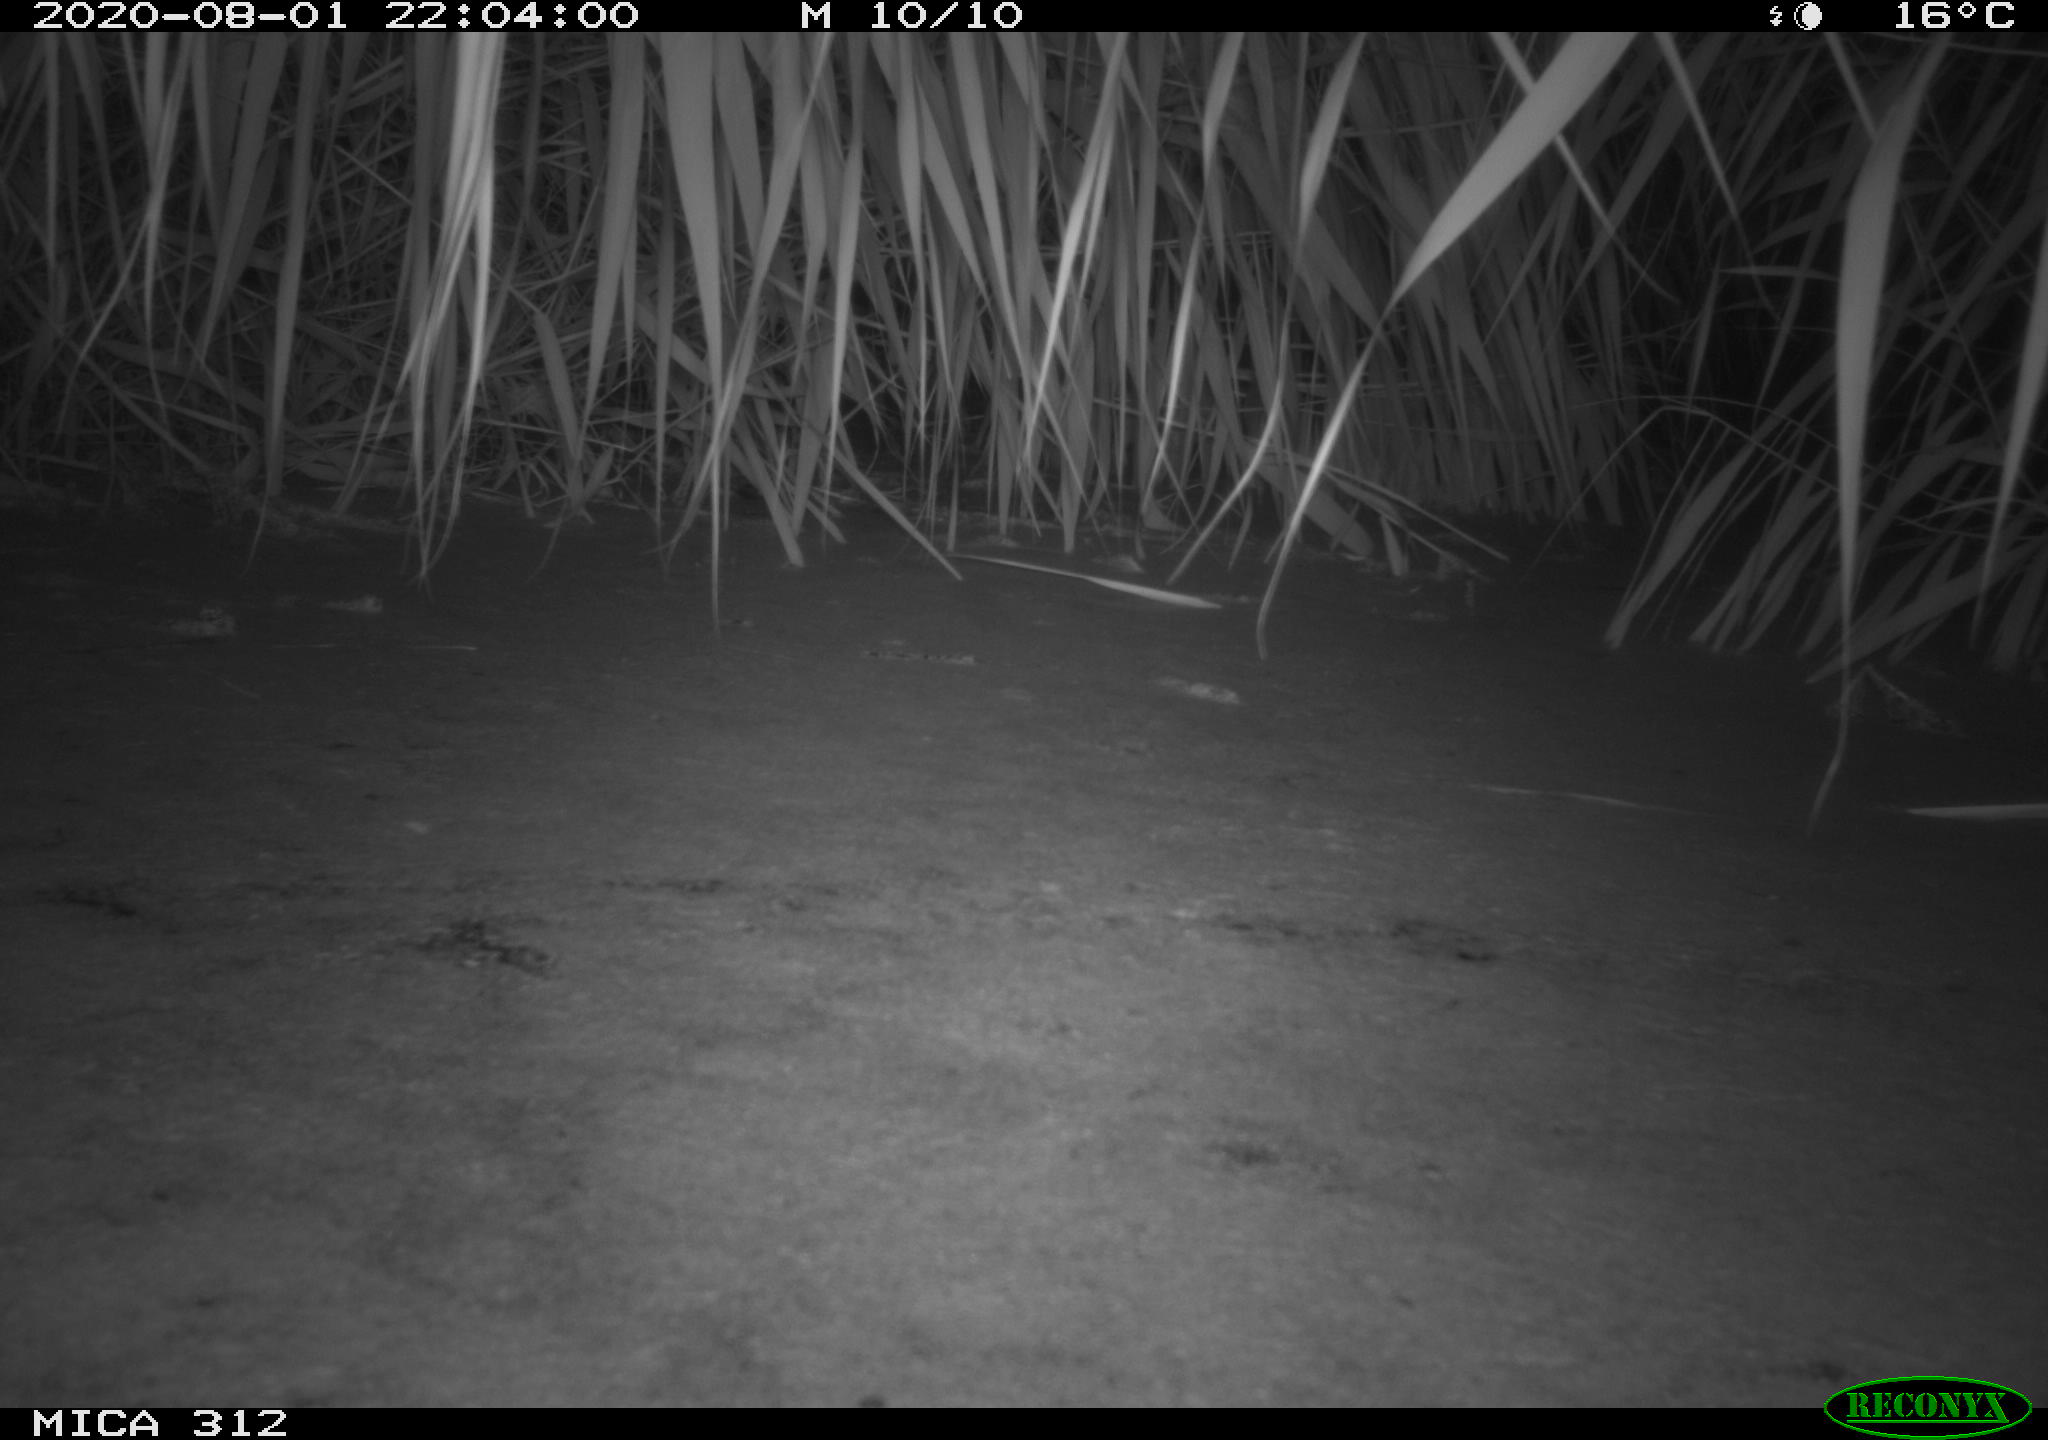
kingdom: Animalia
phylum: Chordata
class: Mammalia
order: Rodentia
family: Muridae
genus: Rattus
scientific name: Rattus norvegicus
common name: Brown rat
